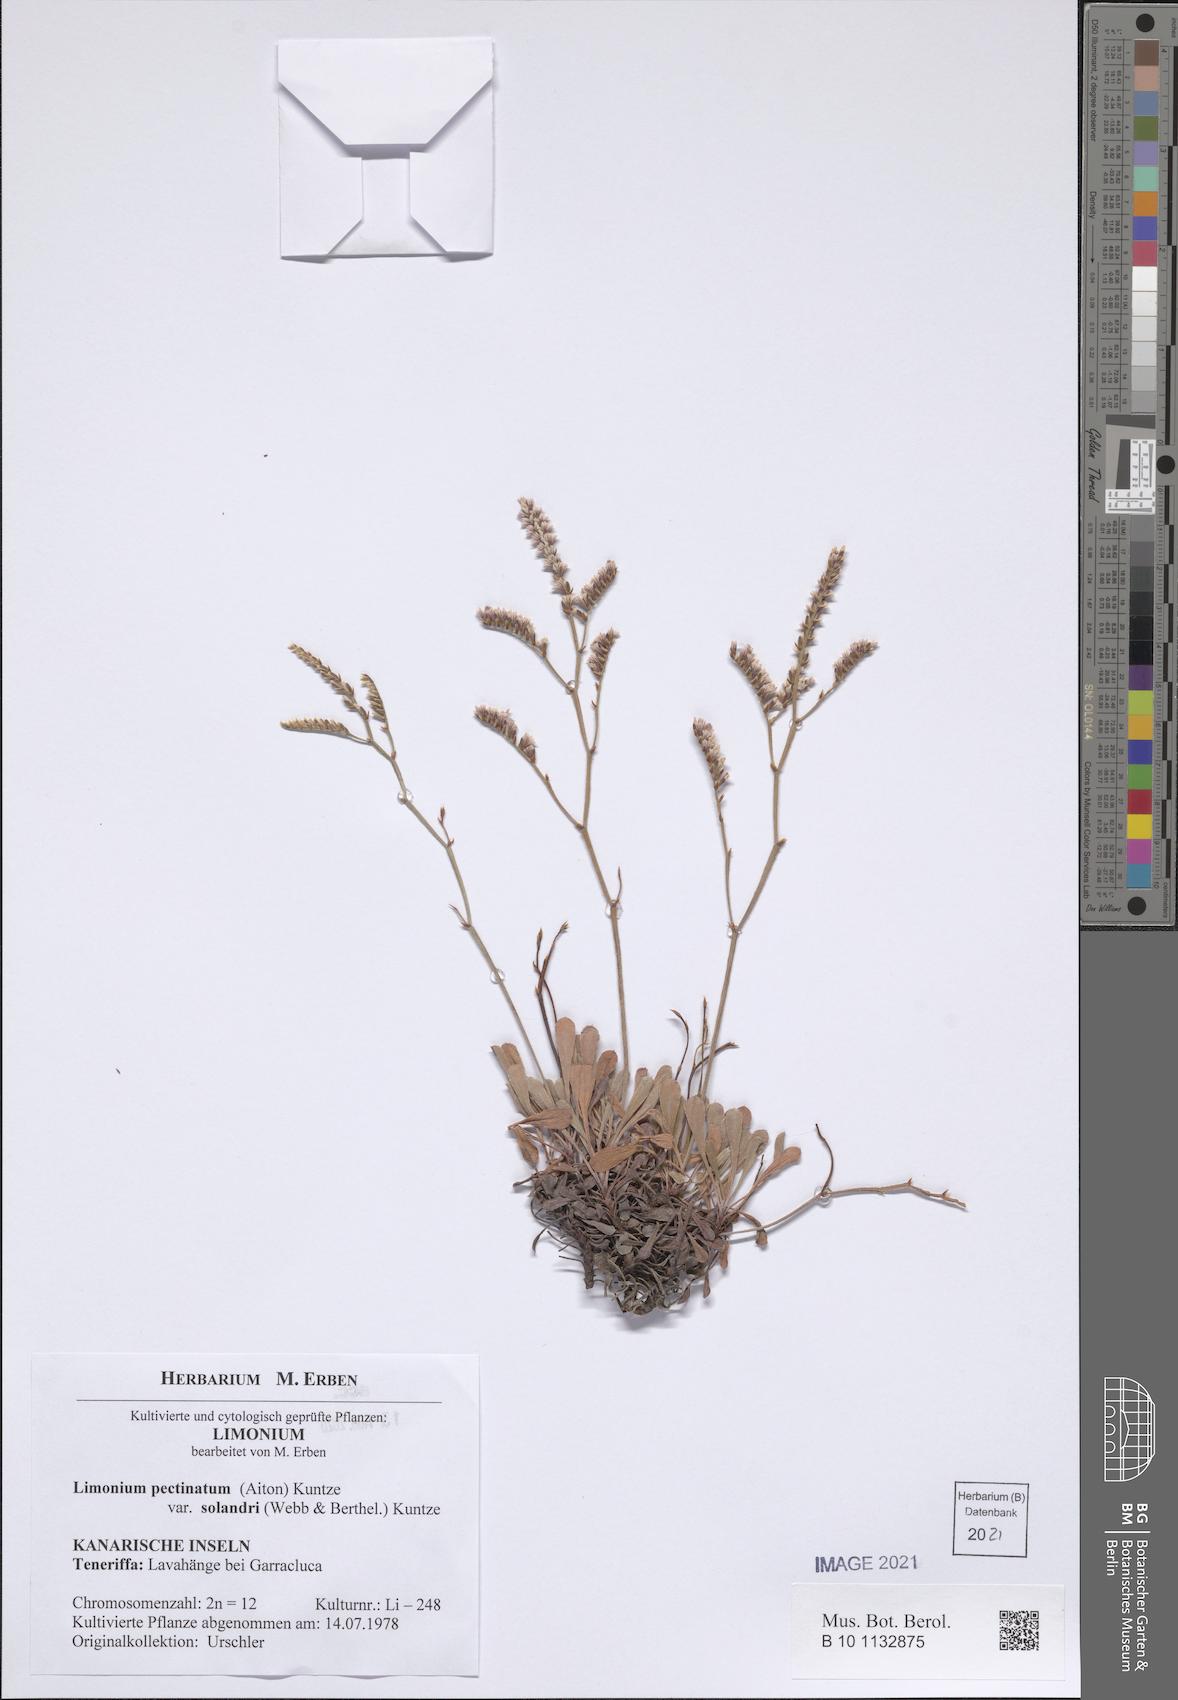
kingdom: Plantae
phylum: Tracheophyta
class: Magnoliopsida
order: Caryophyllales
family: Plumbaginaceae
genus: Limonium
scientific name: Limonium pectinatum
